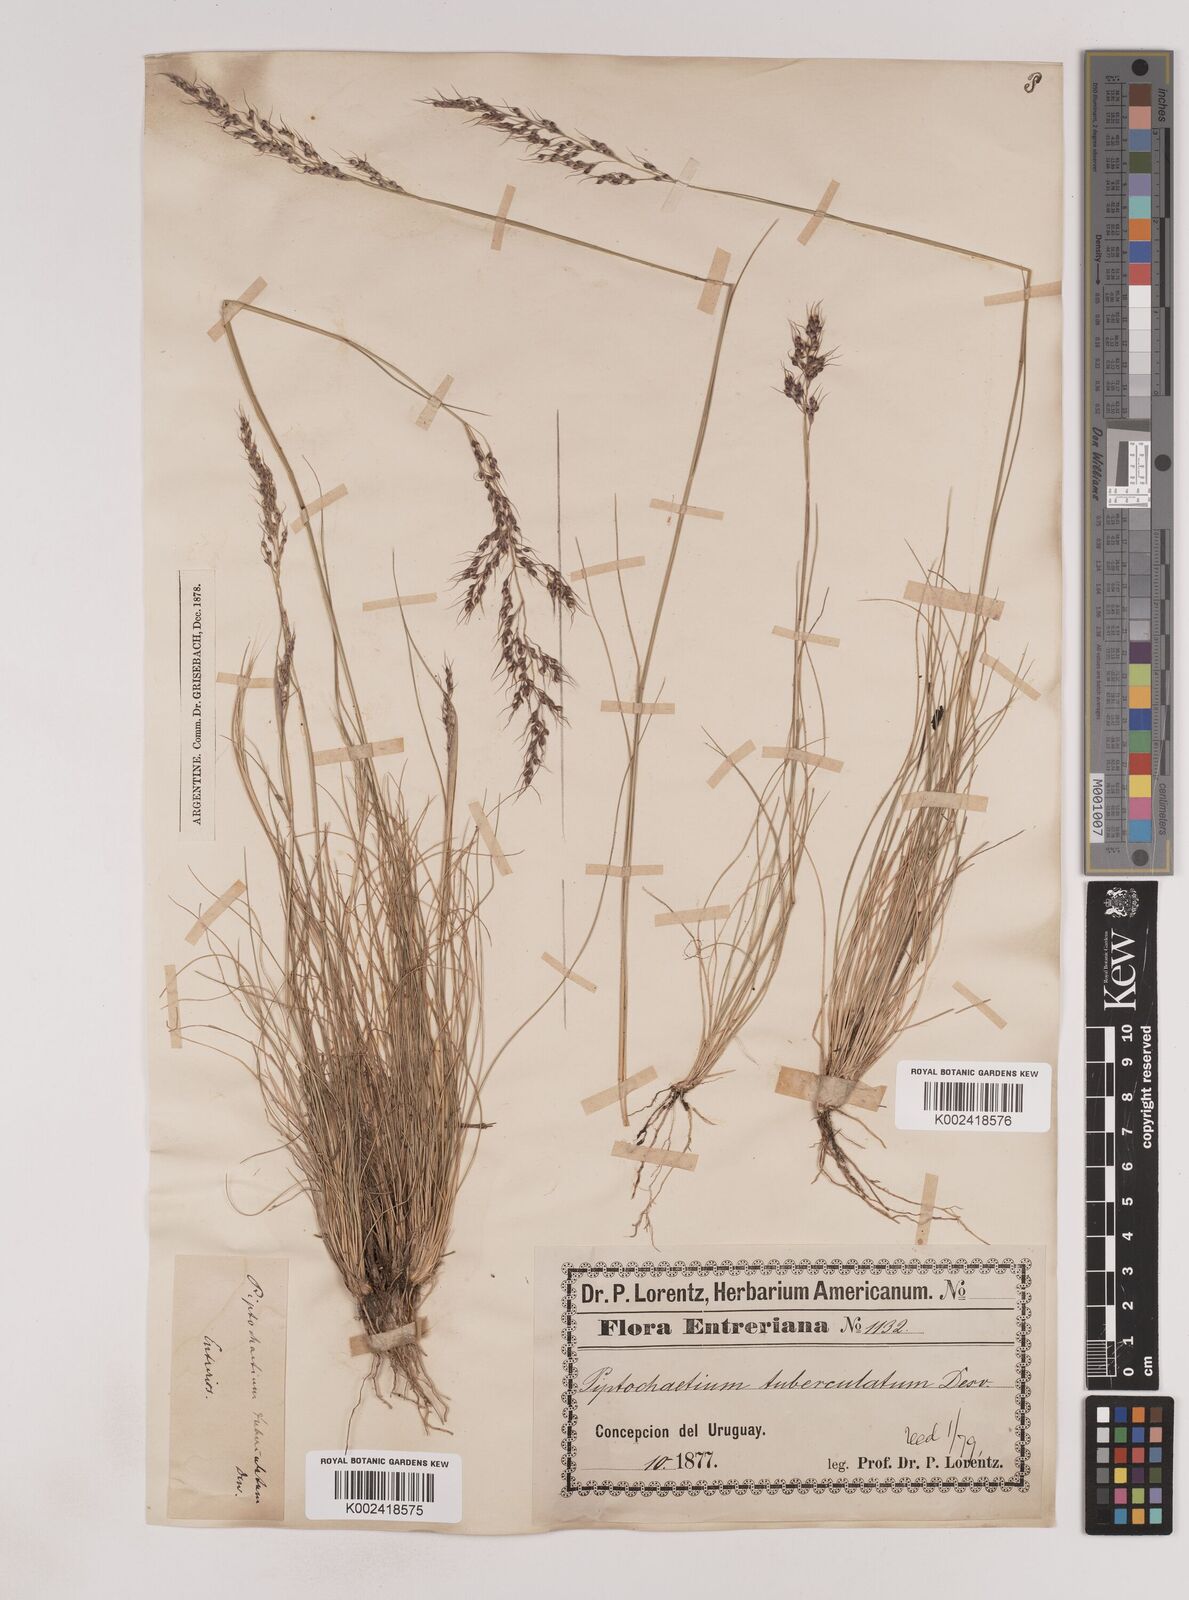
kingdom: Plantae
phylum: Tracheophyta
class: Liliopsida
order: Poales
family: Poaceae
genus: Piptochaetium
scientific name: Piptochaetium montevidense
